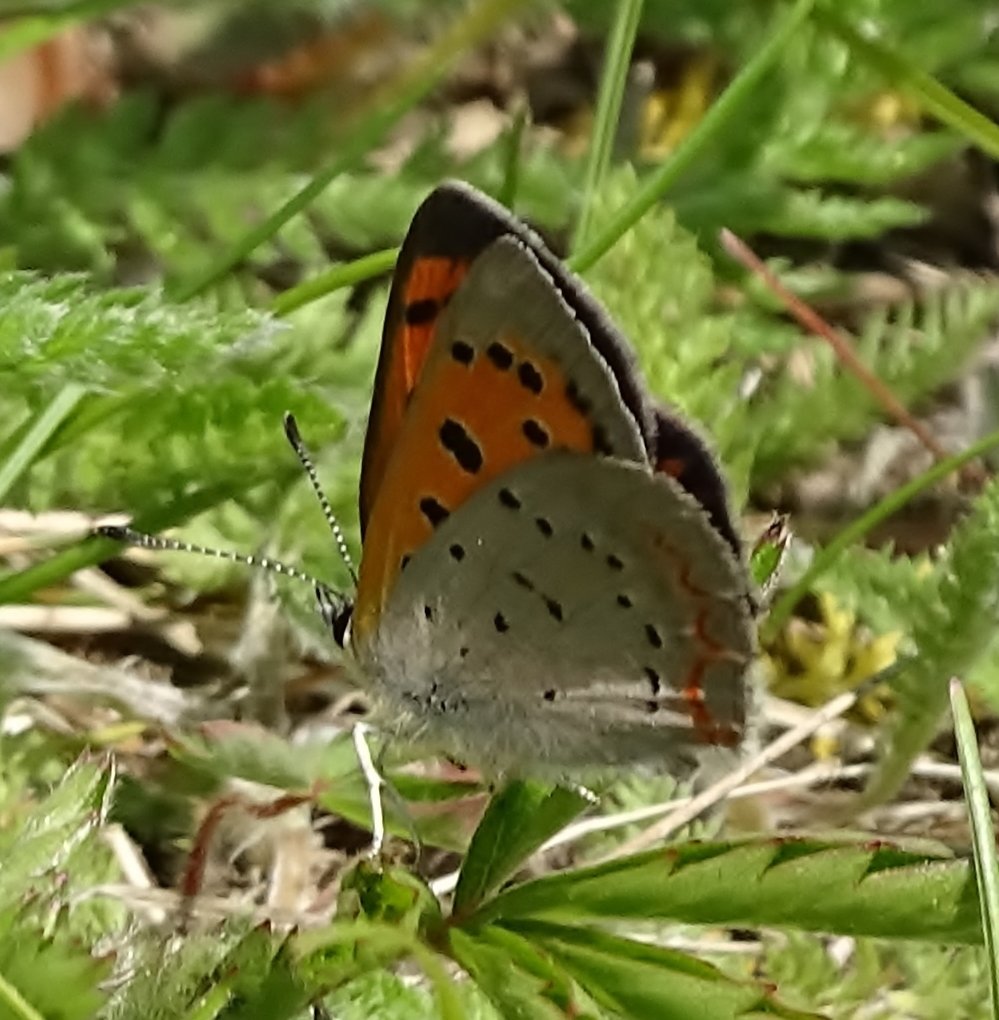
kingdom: Animalia
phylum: Arthropoda
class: Insecta
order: Lepidoptera
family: Lycaenidae
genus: Lycaena
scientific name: Lycaena phlaeas
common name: American Copper
